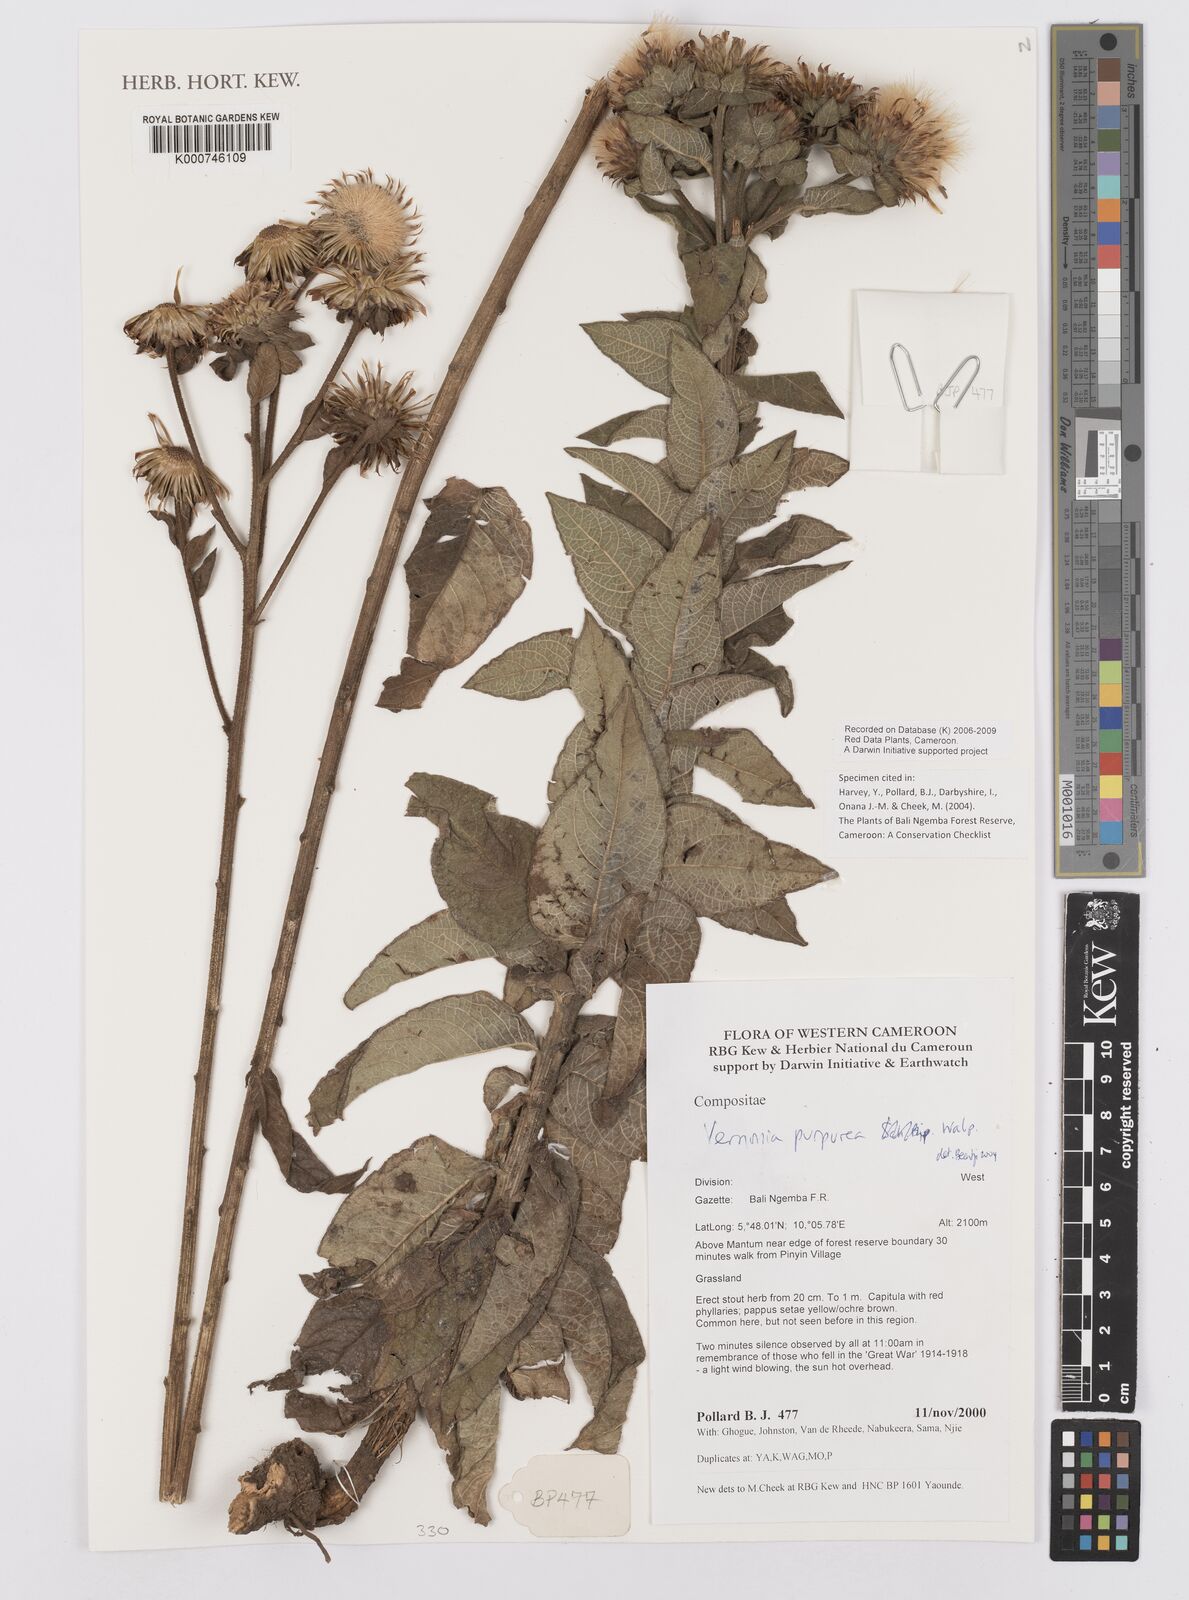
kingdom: Plantae
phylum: Tracheophyta
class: Magnoliopsida
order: Asterales
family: Asteraceae
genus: Vernonia
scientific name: Vernonia
